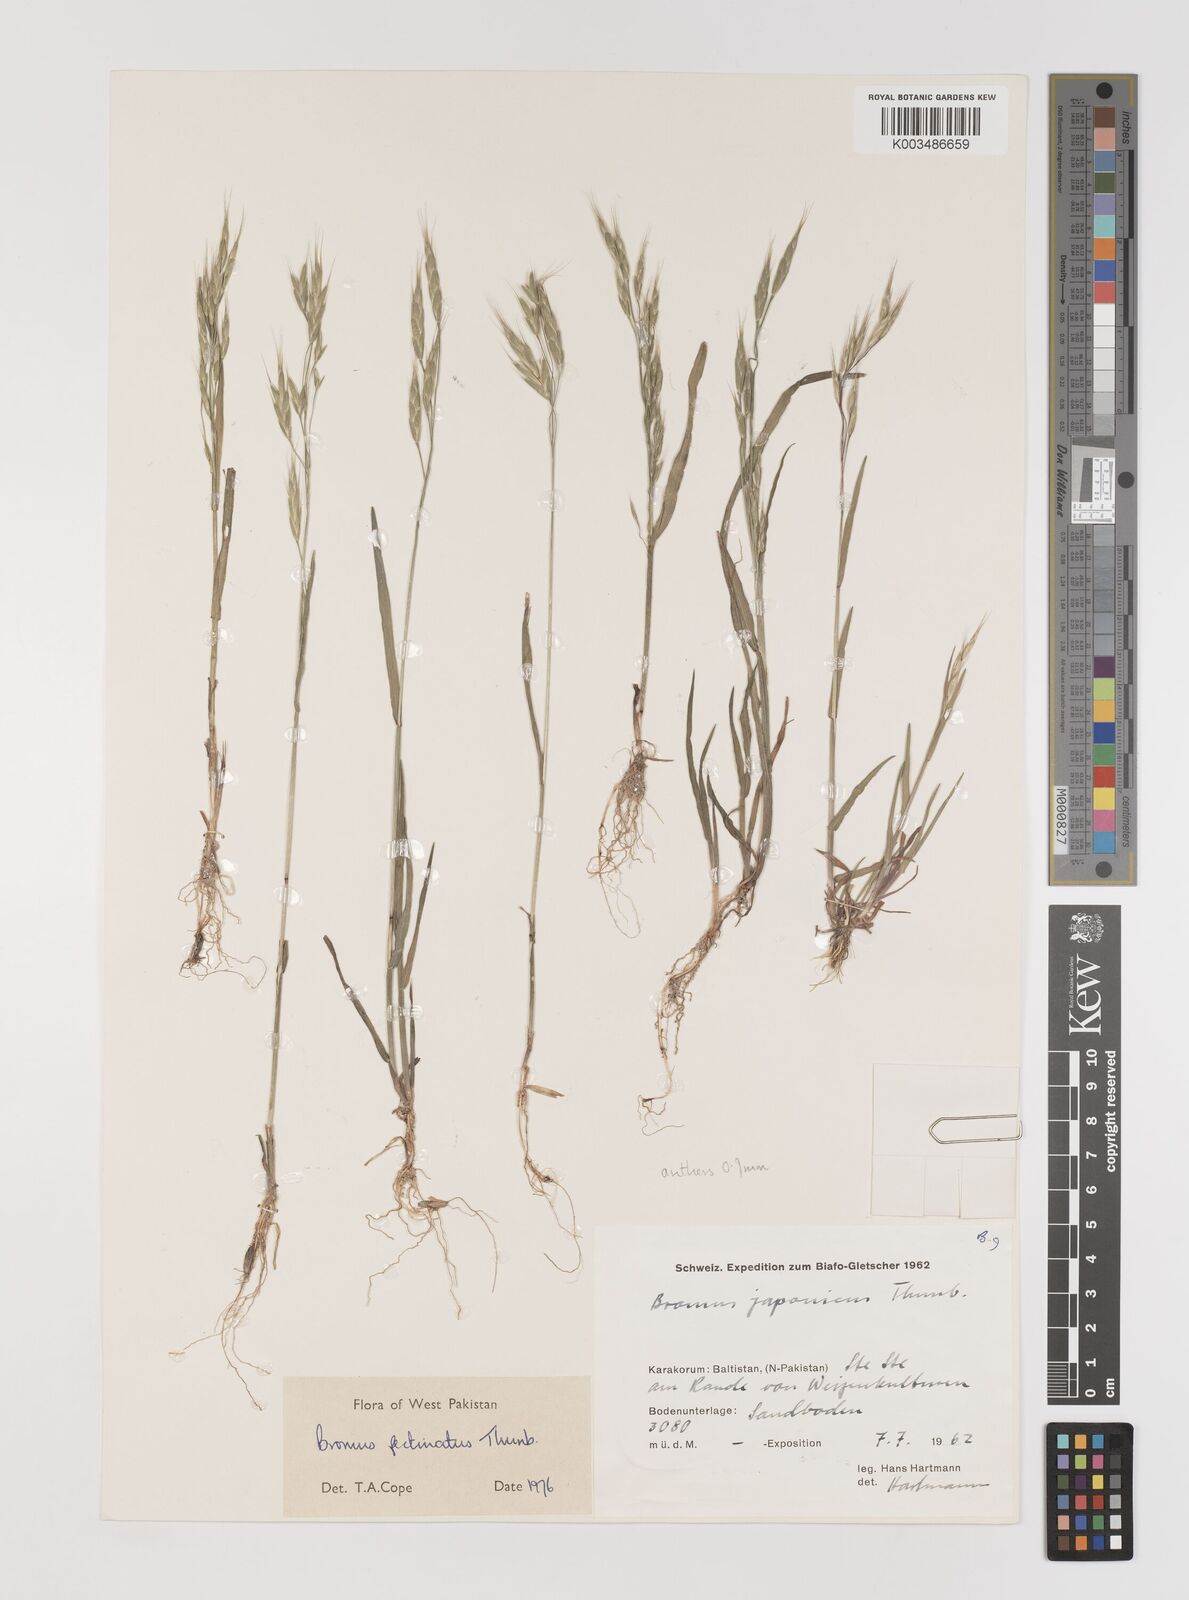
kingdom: Plantae
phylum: Tracheophyta
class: Liliopsida
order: Poales
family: Poaceae
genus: Bromus
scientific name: Bromus pectinatus
